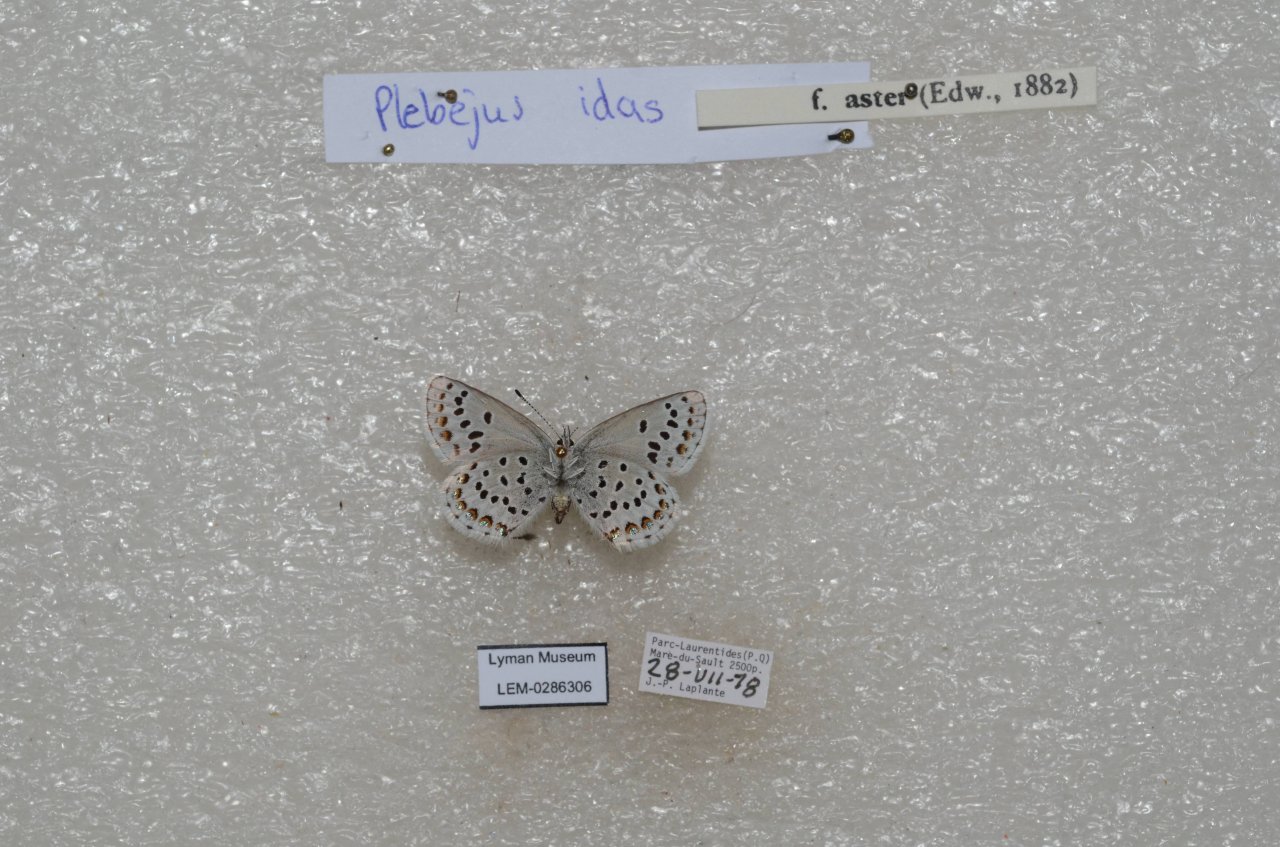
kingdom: Animalia
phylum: Arthropoda
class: Insecta
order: Lepidoptera
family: Lycaenidae
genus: Lycaeides
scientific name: Lycaeides idas
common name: Northern Blue
